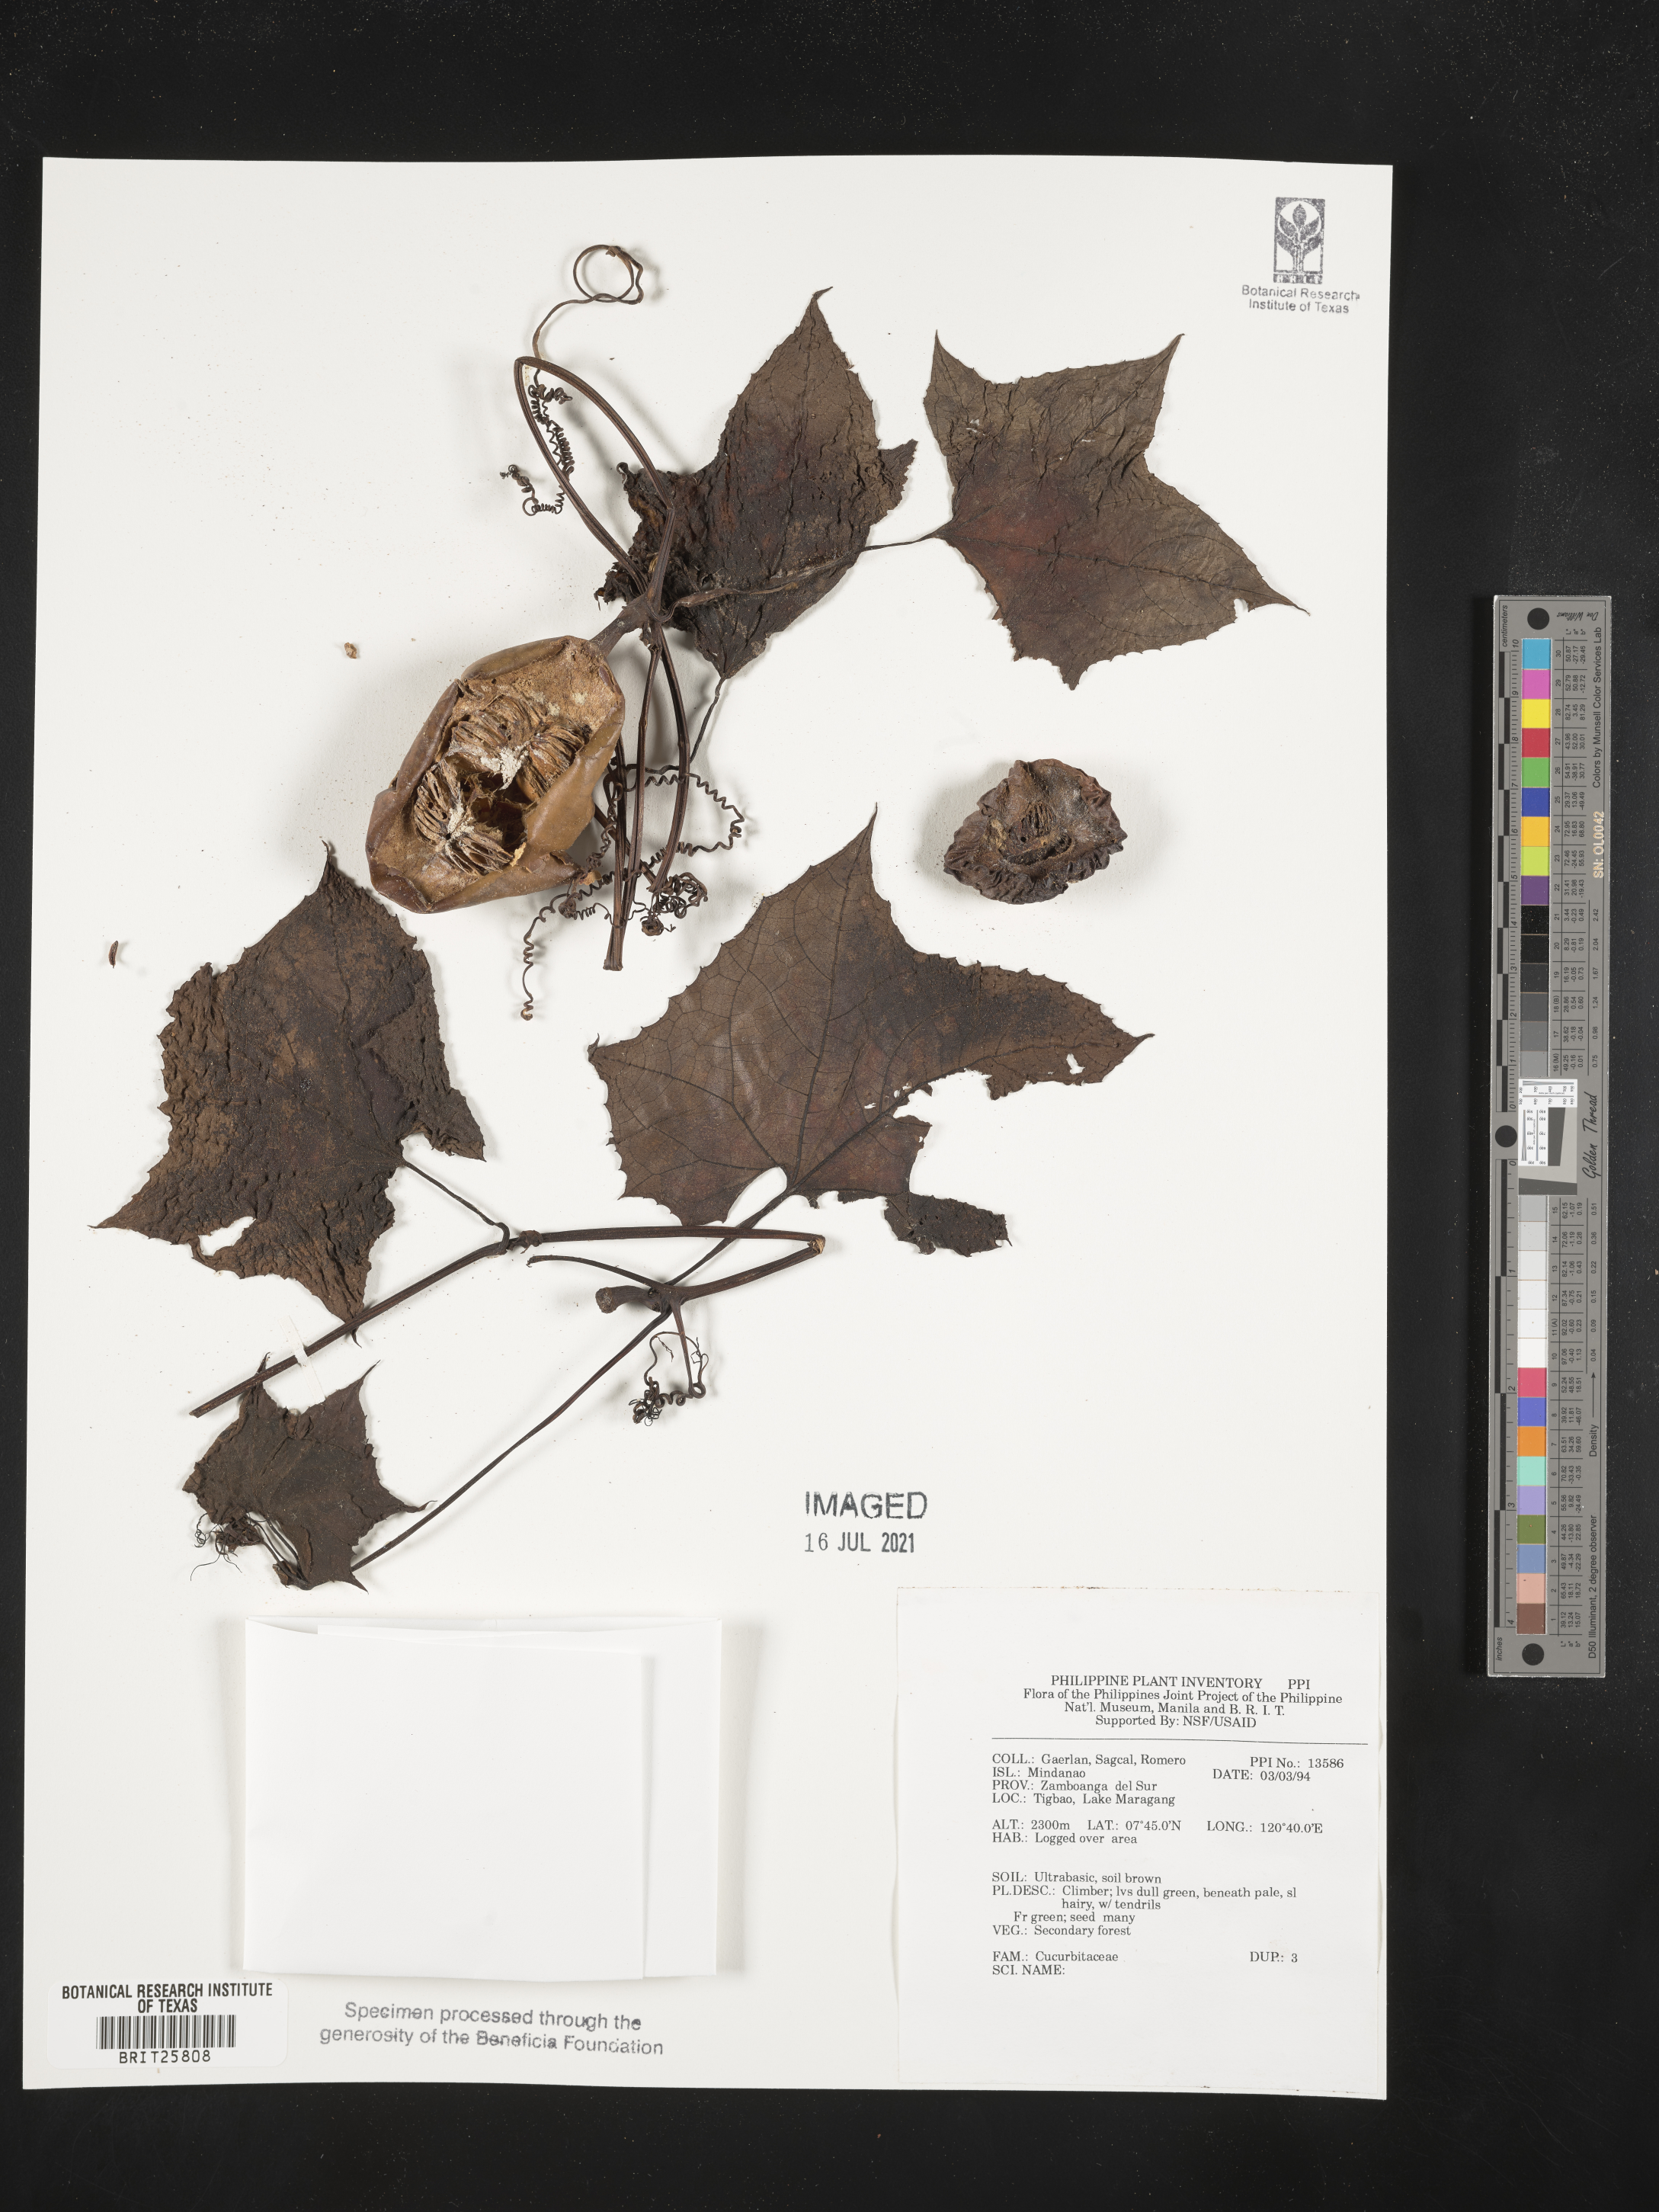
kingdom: Plantae
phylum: Tracheophyta
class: Magnoliopsida
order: Cucurbitales
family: Cucurbitaceae
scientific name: Cucurbitaceae
